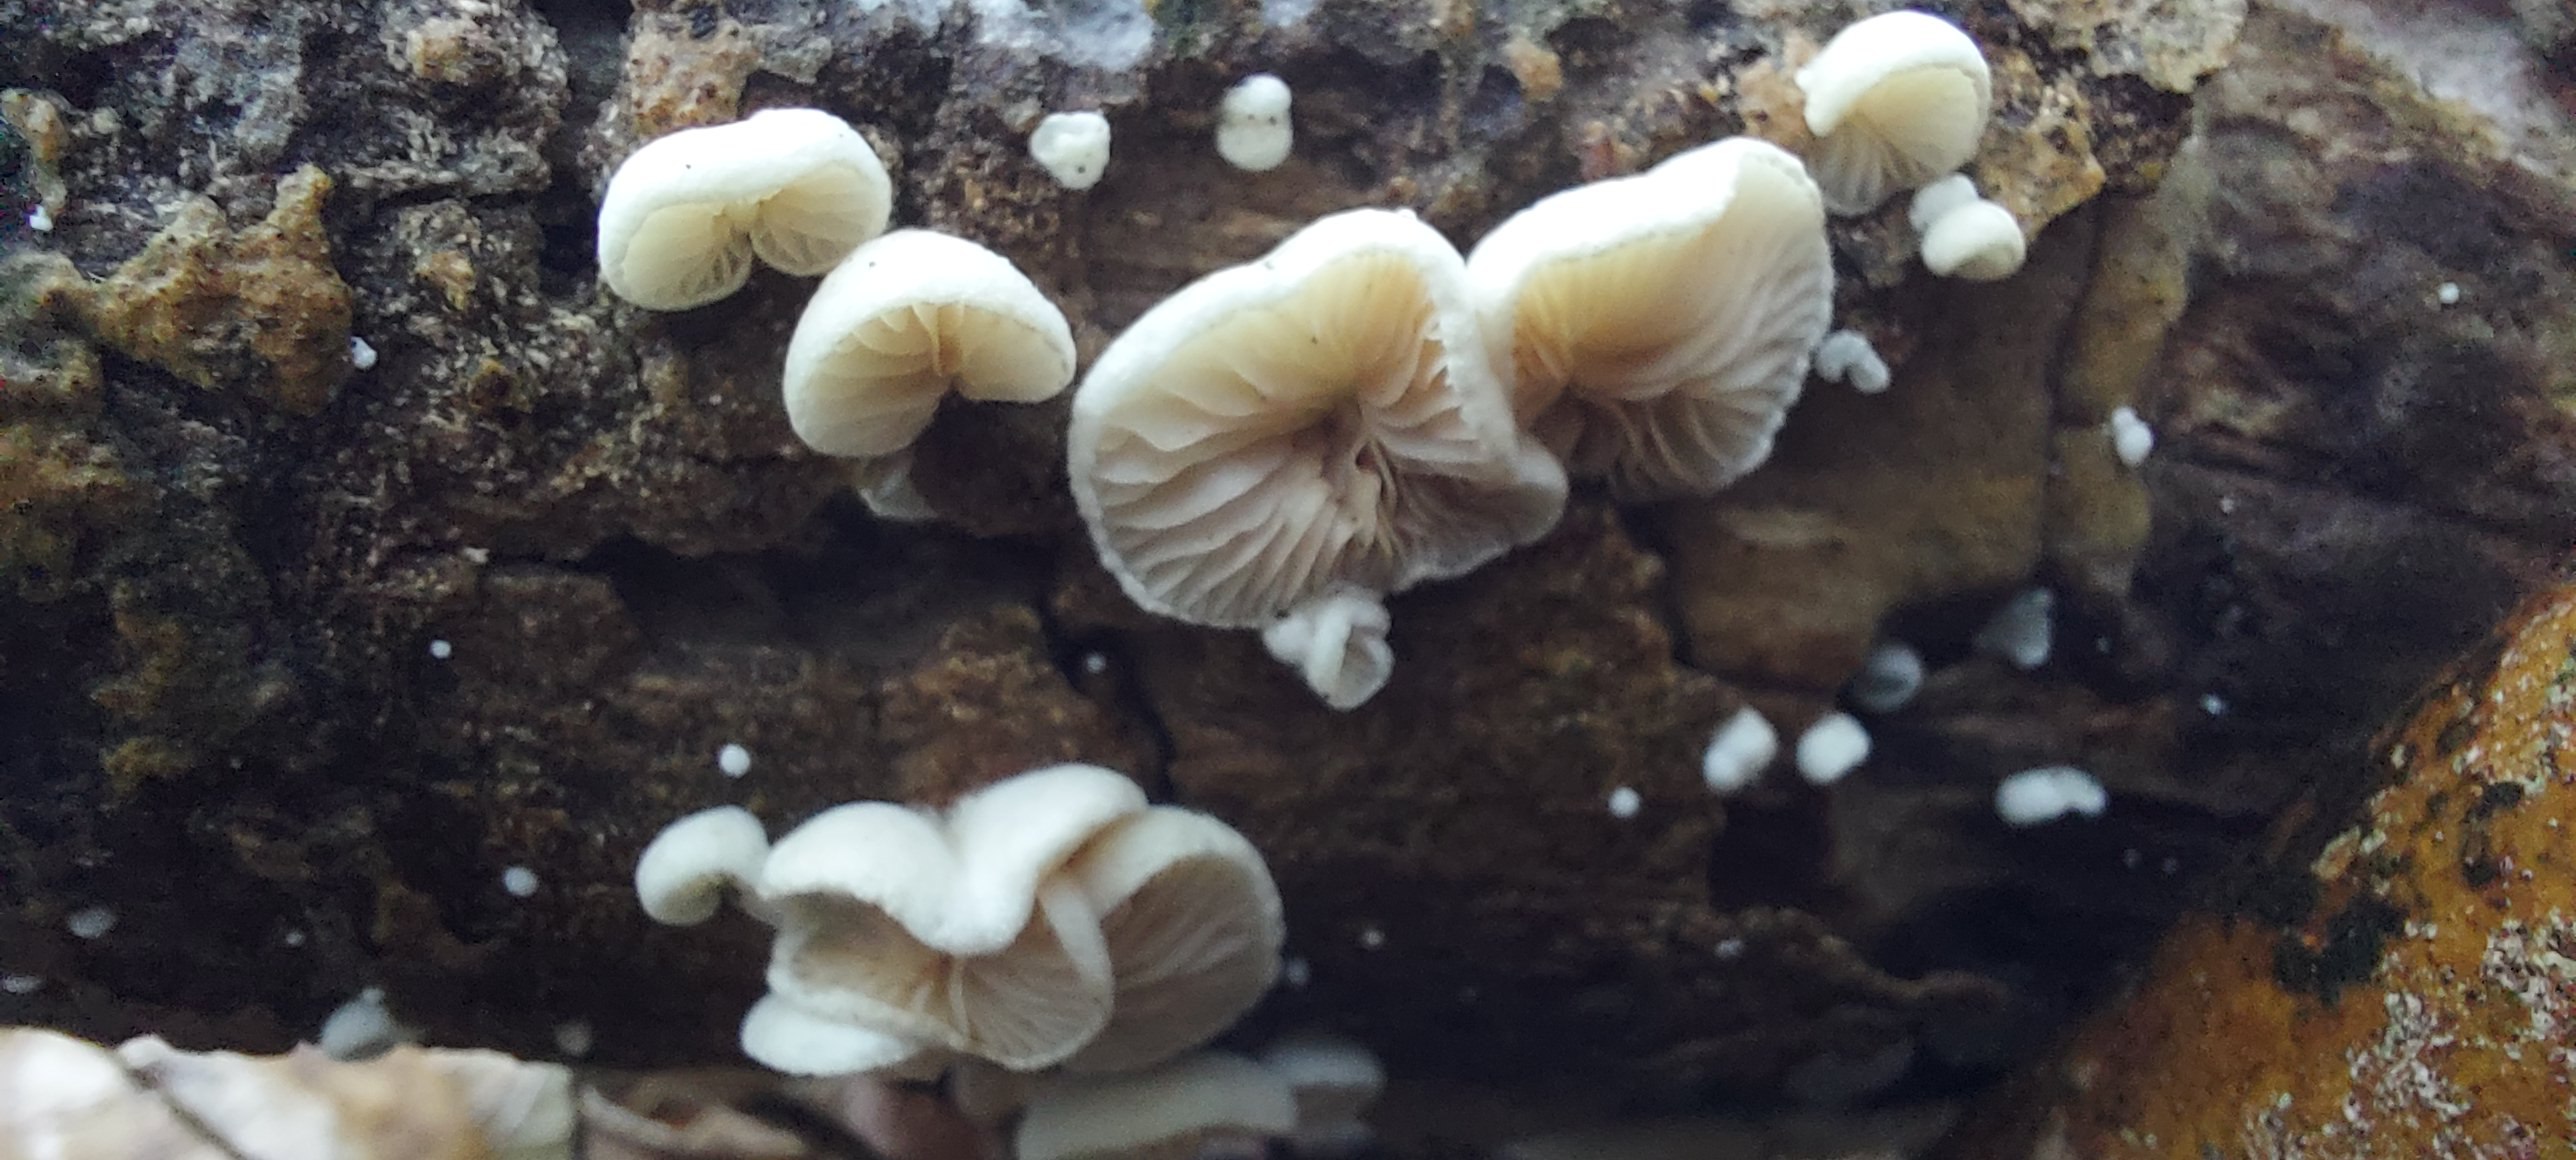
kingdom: Fungi
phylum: Basidiomycota
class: Agaricomycetes
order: Agaricales
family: Crepidotaceae
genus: Crepidotus
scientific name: Crepidotus
